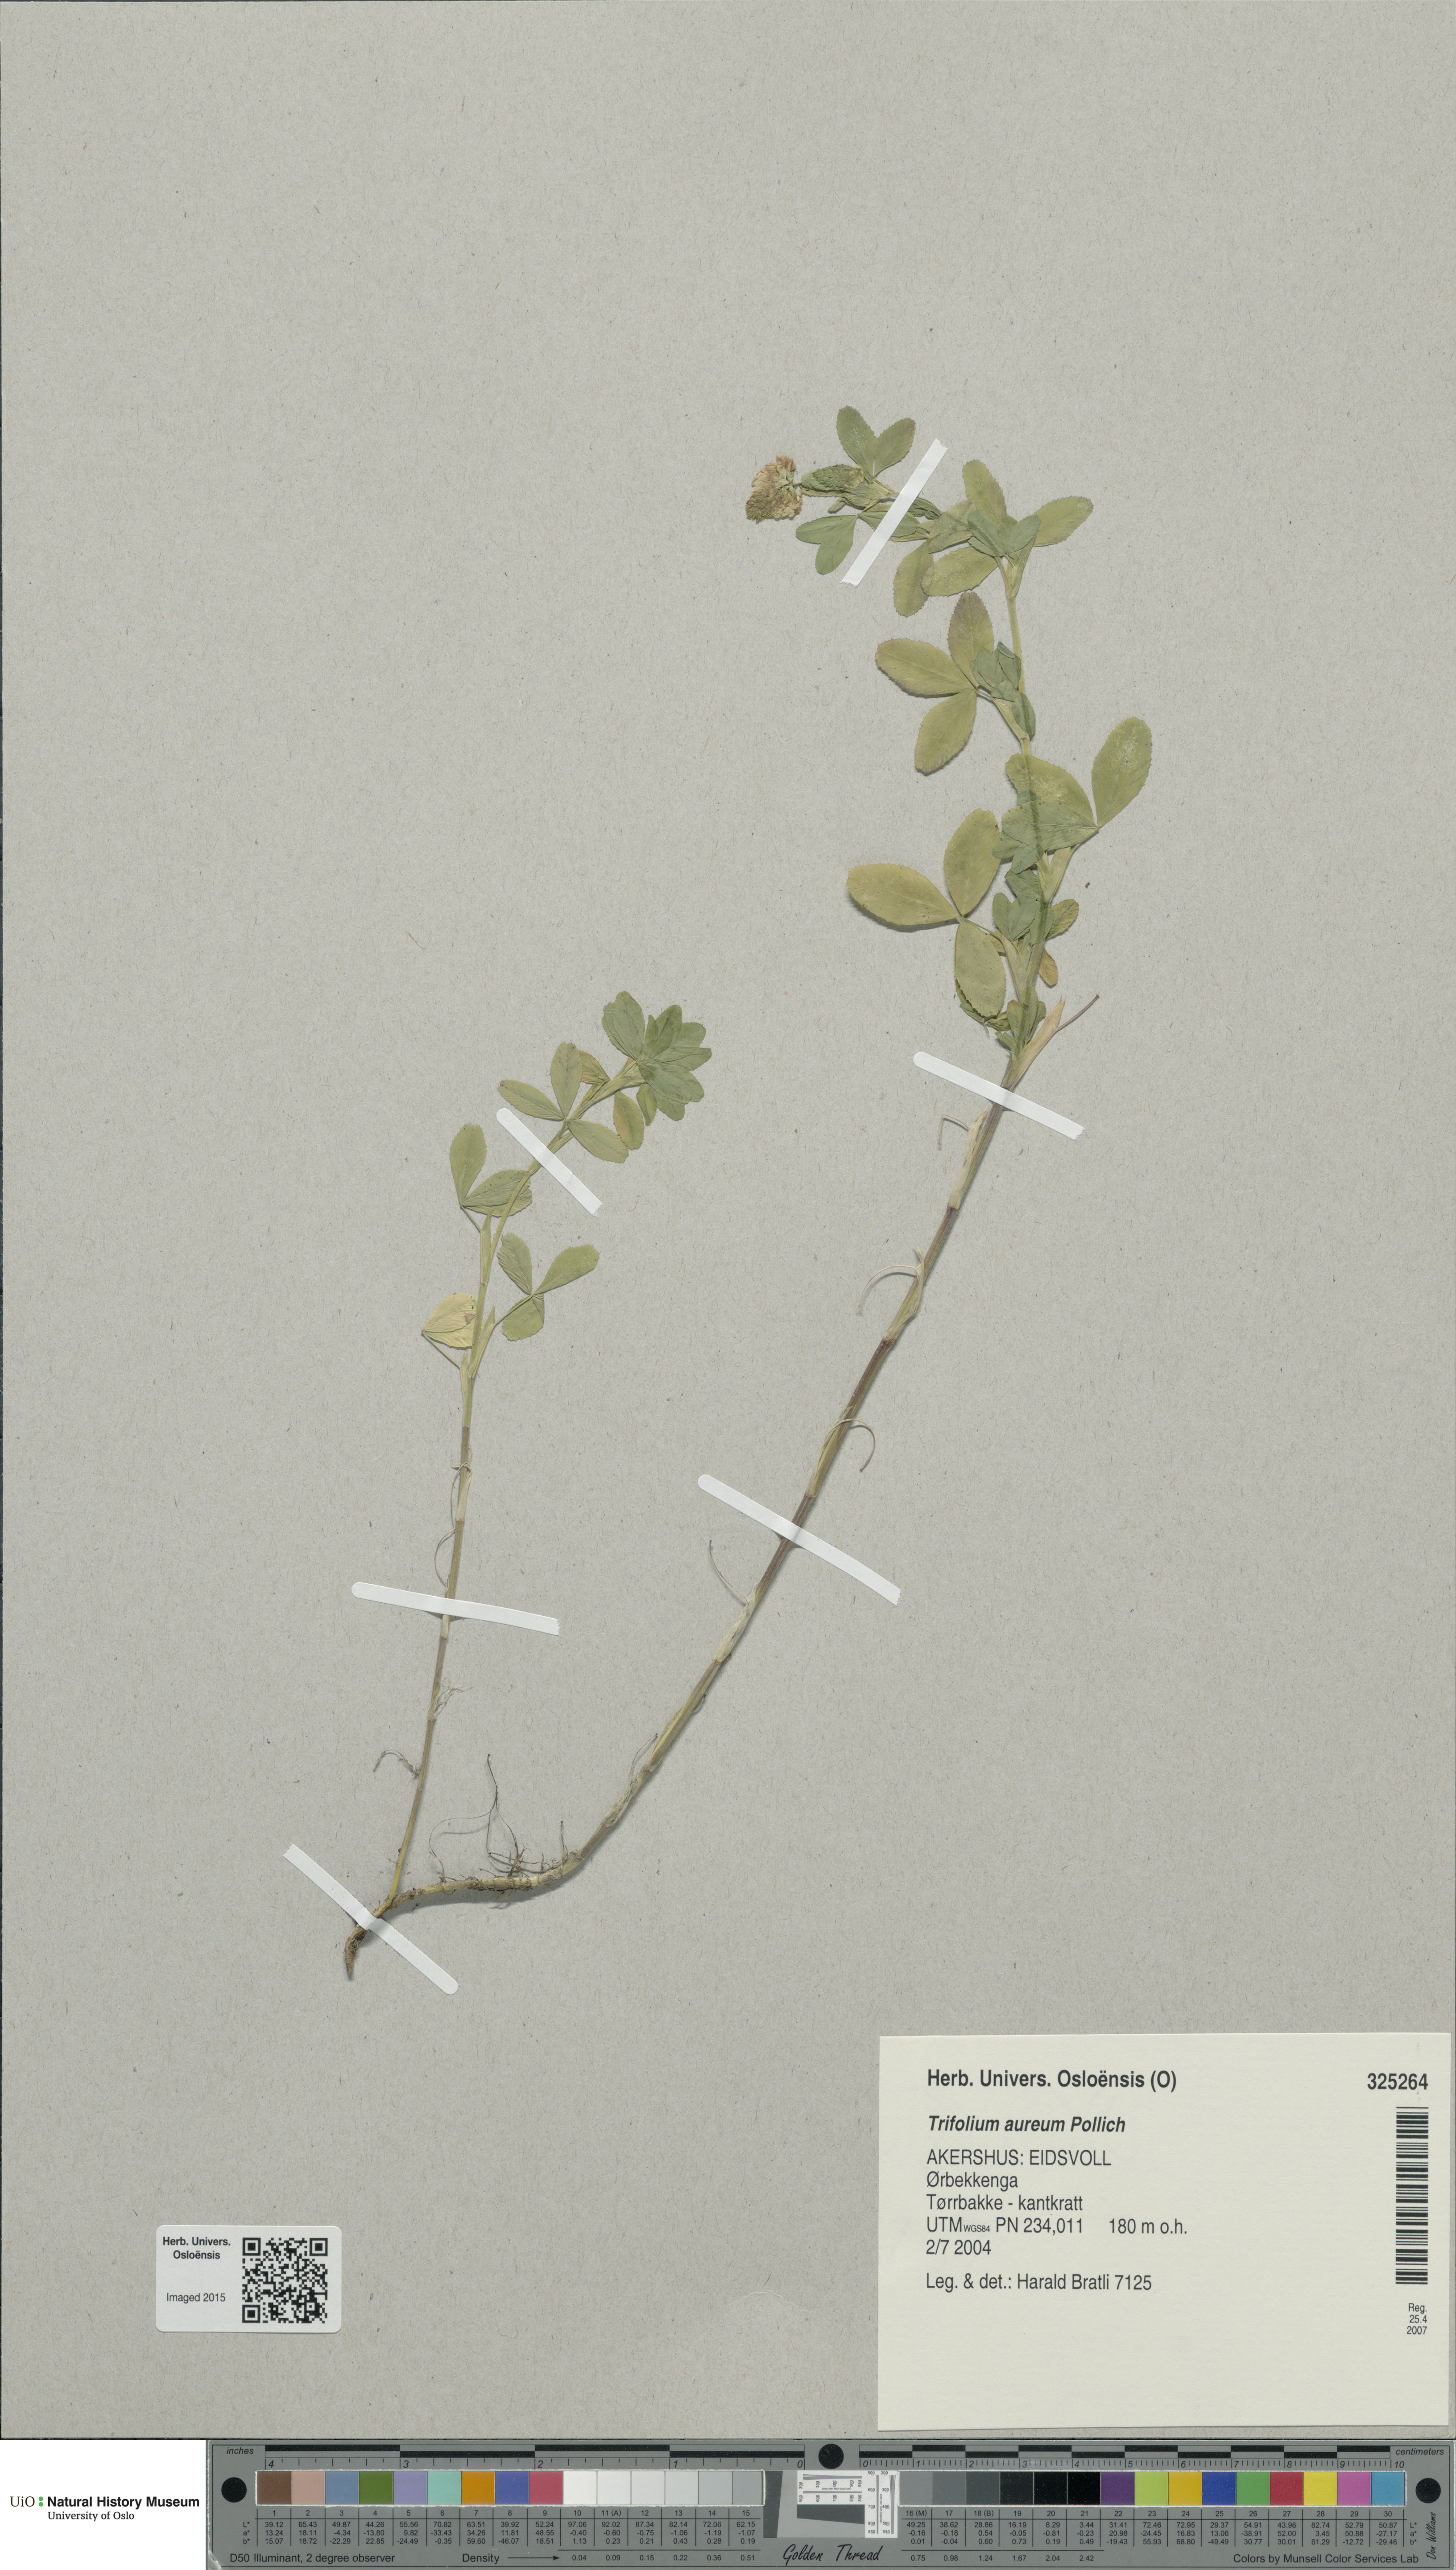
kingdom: Plantae
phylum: Tracheophyta
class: Magnoliopsida
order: Fabales
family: Fabaceae
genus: Trifolium
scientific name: Trifolium aureum
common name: Golden clover
